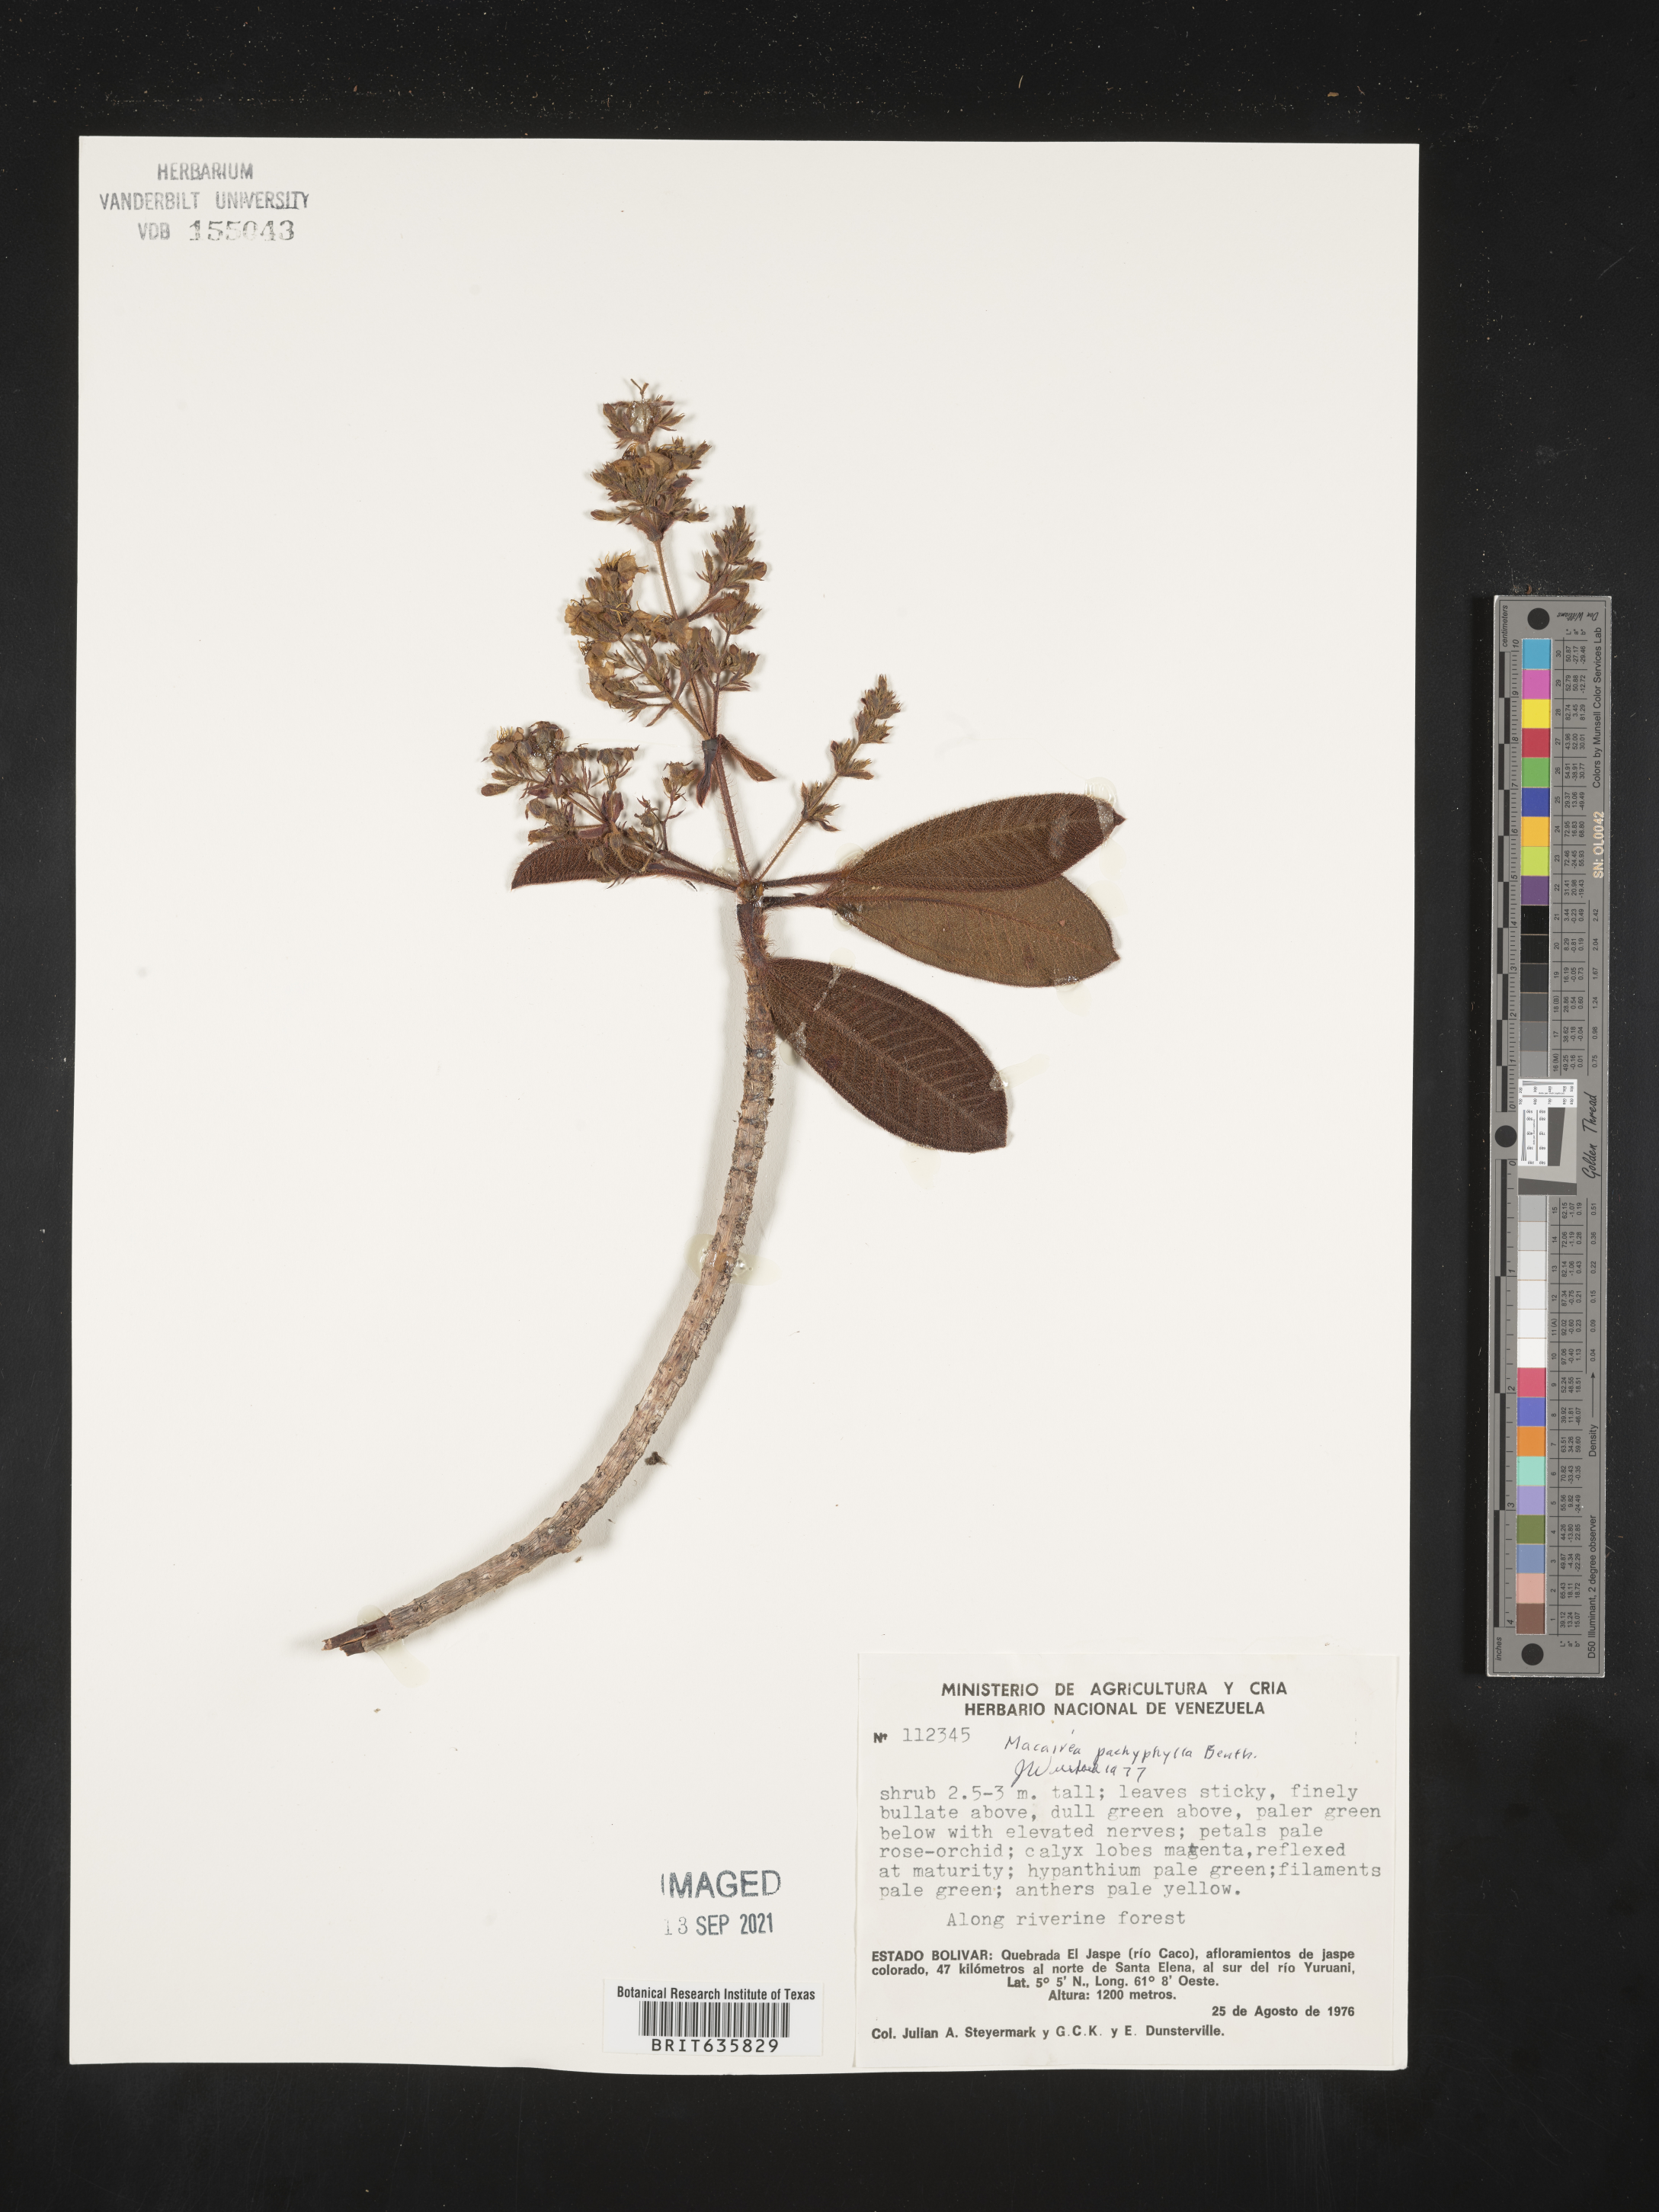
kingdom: Plantae
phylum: Tracheophyta
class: Magnoliopsida
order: Myrtales
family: Melastomataceae
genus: Macairea
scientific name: Macairea
